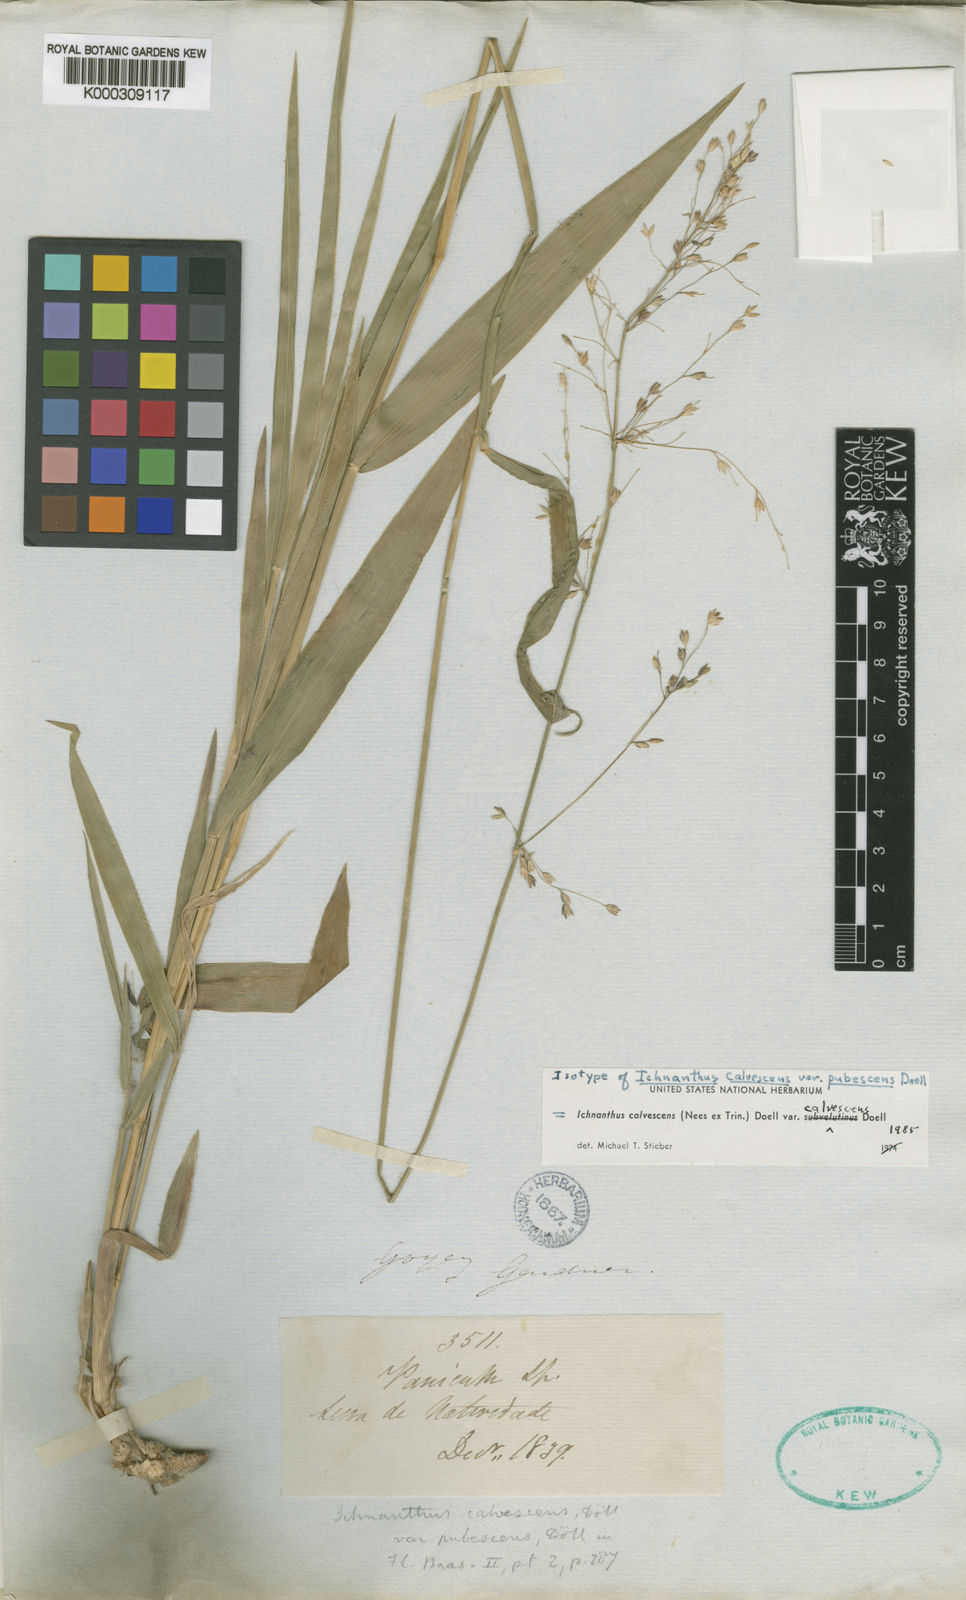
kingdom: Plantae
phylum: Tracheophyta
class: Liliopsida
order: Poales
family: Poaceae
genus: Ichnanthus
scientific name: Ichnanthus
